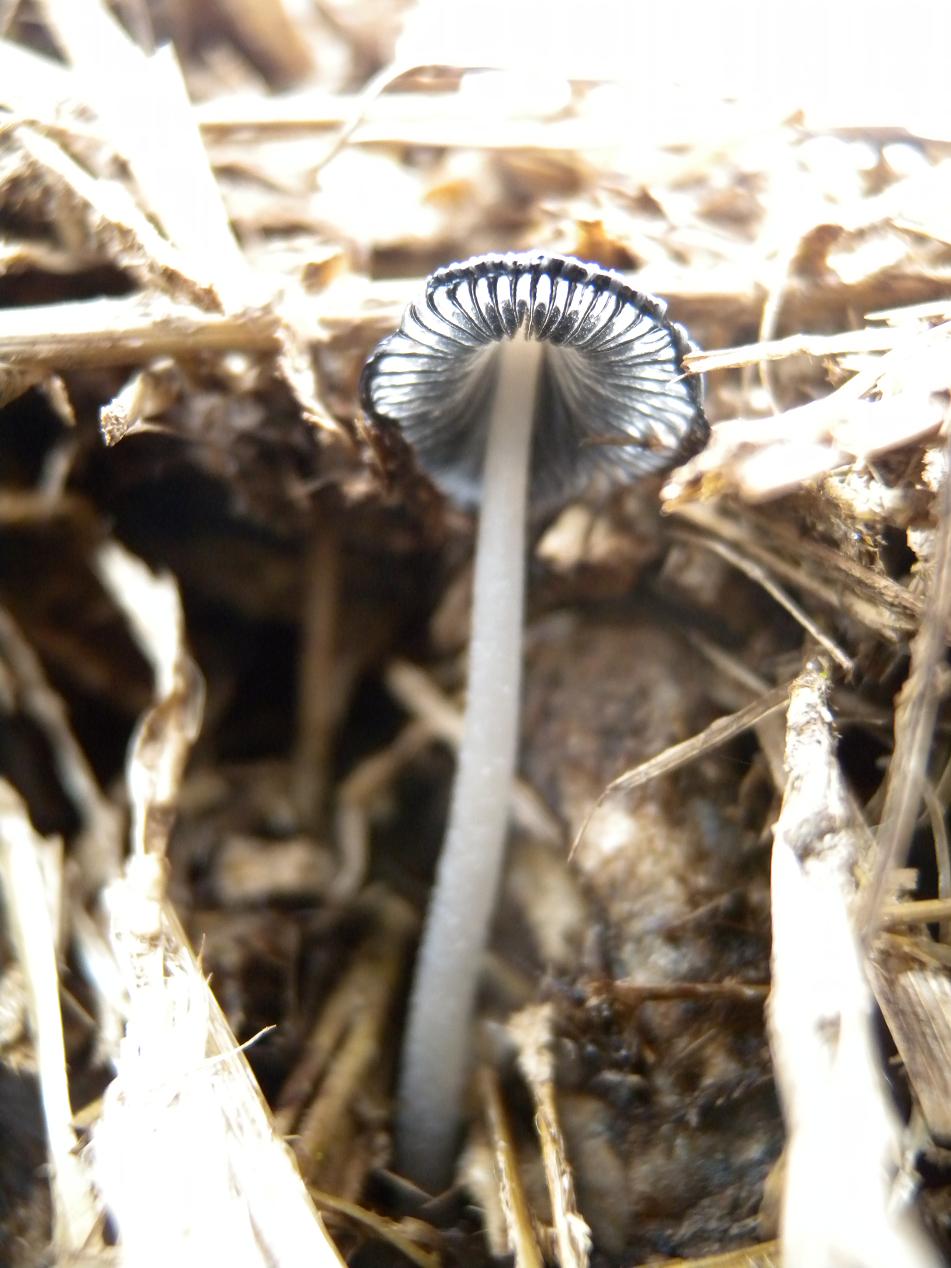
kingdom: Fungi
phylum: Basidiomycota
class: Agaricomycetes
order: Agaricales
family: Psathyrellaceae
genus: Coprinopsis
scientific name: Coprinopsis macrocephala
